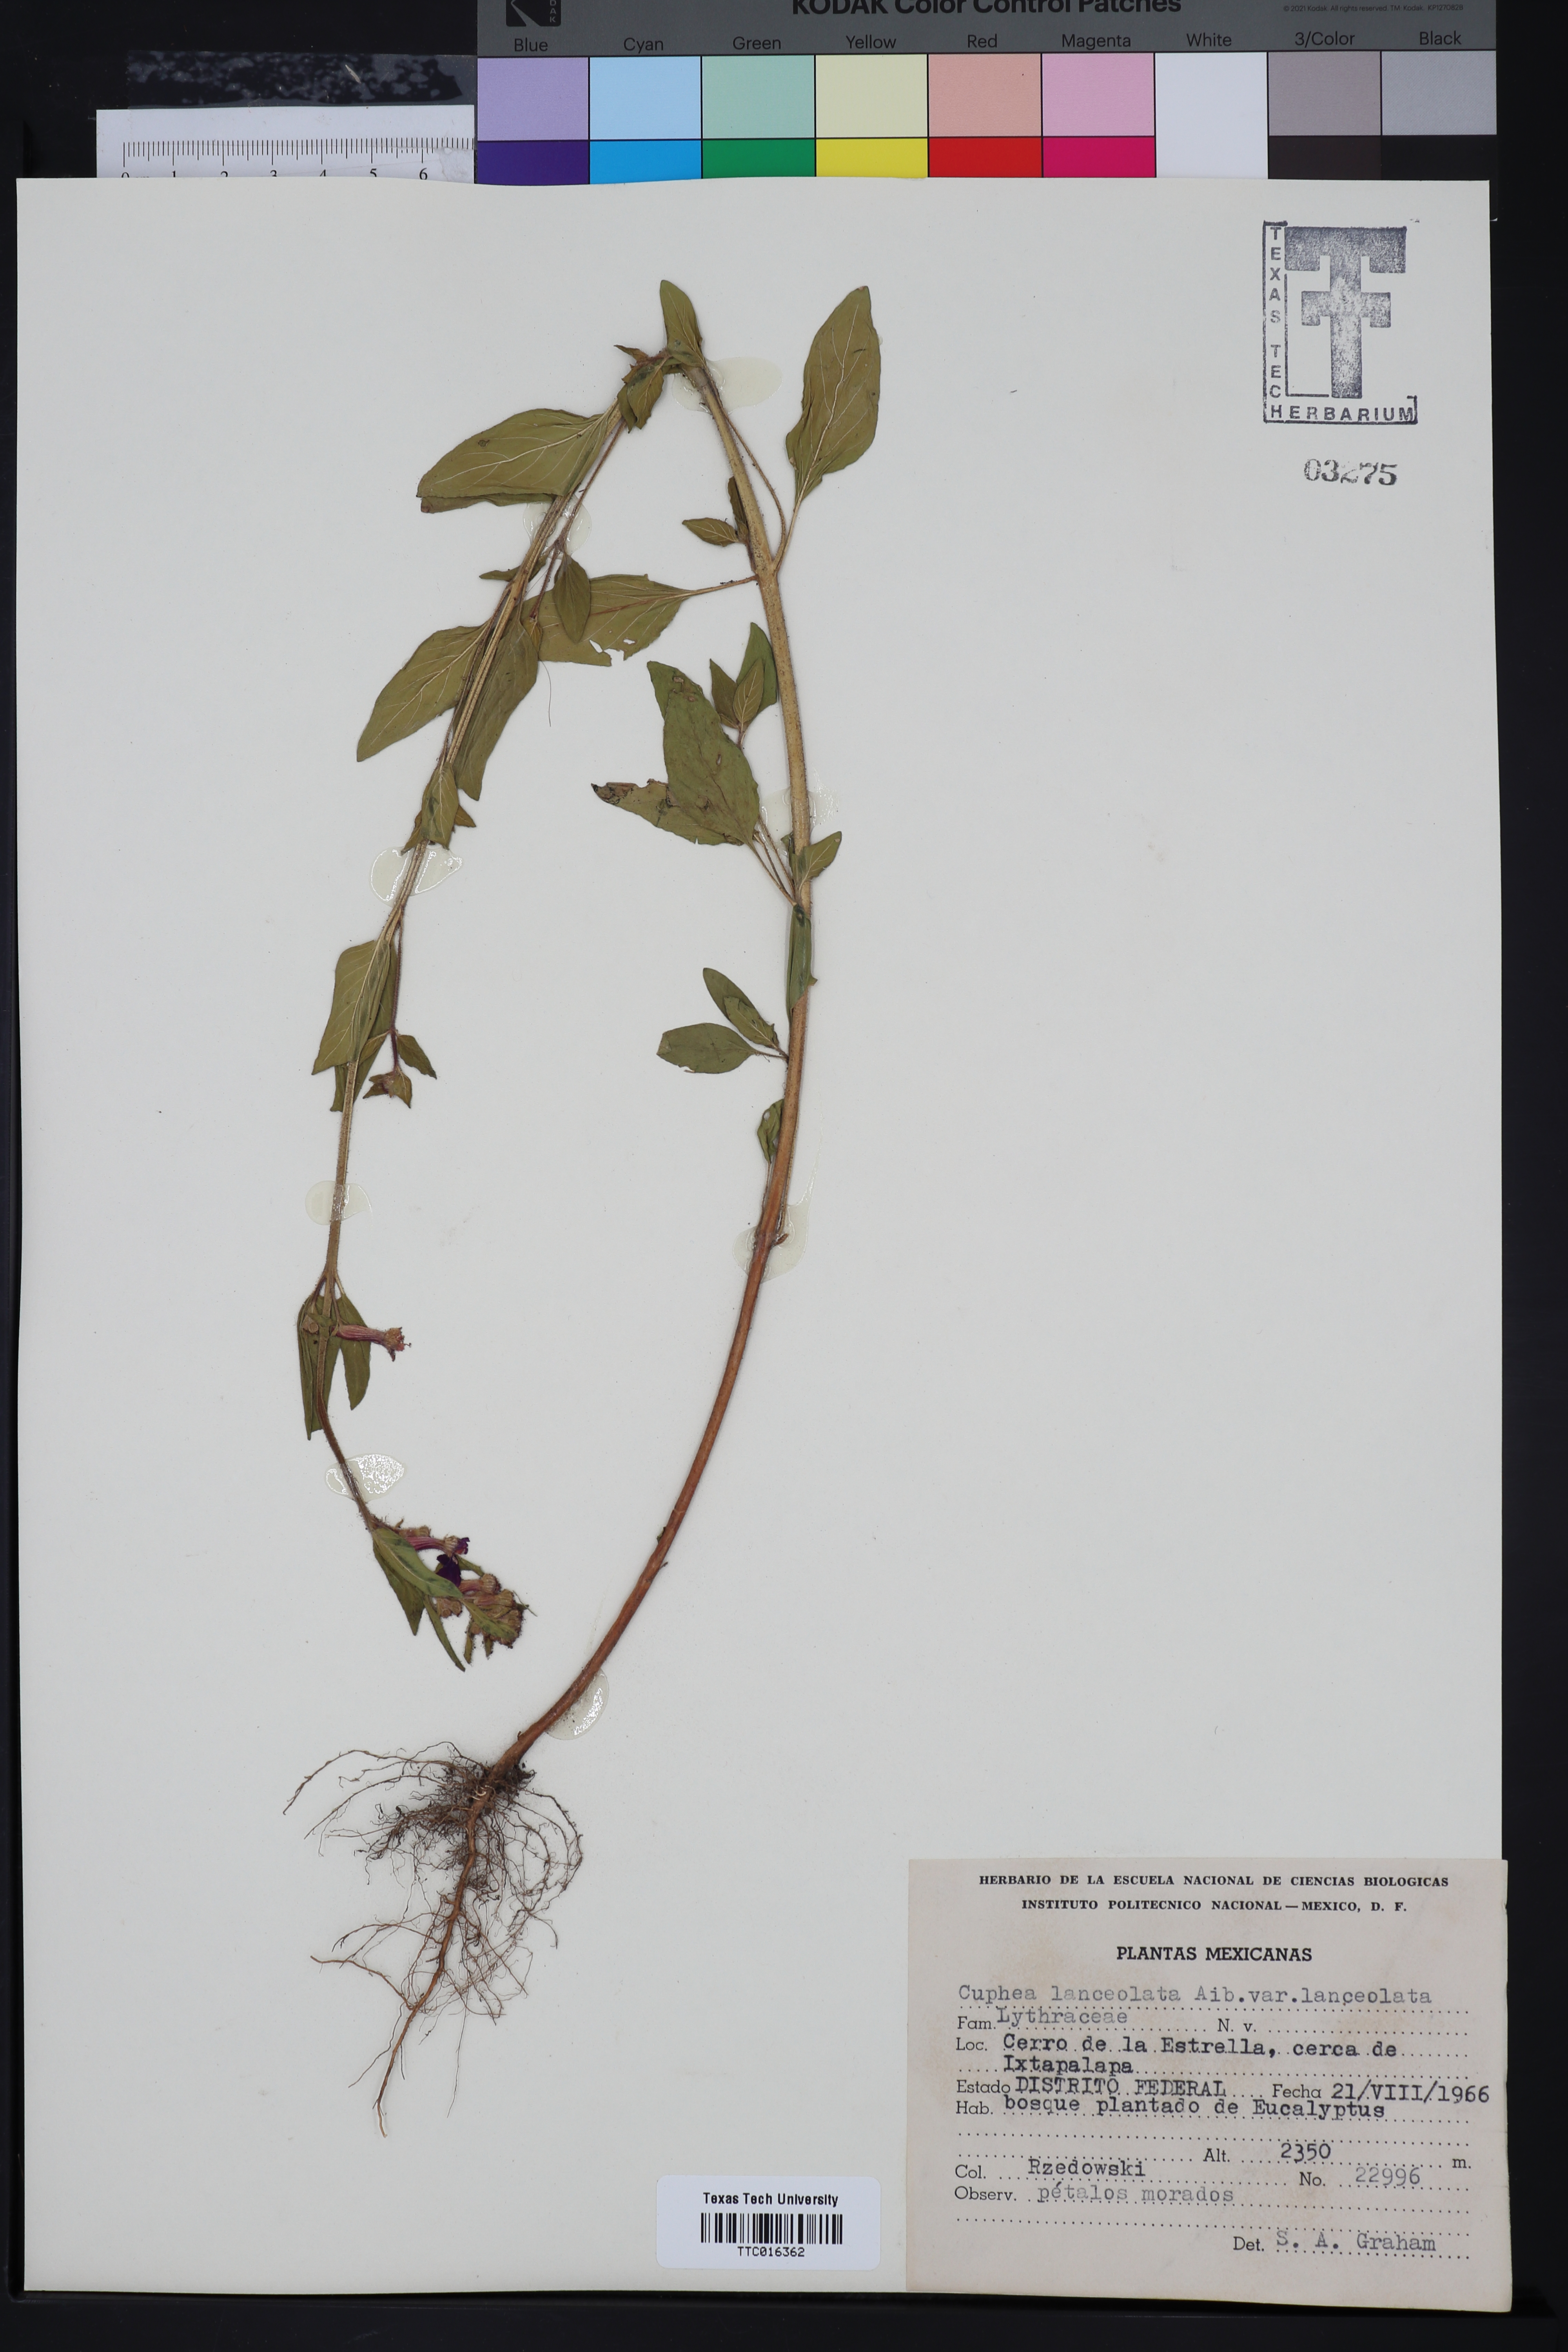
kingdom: Plantae
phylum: Tracheophyta
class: Magnoliopsida
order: Myrtales
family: Lythraceae
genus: Cuphea
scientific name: Cuphea lanceolata
